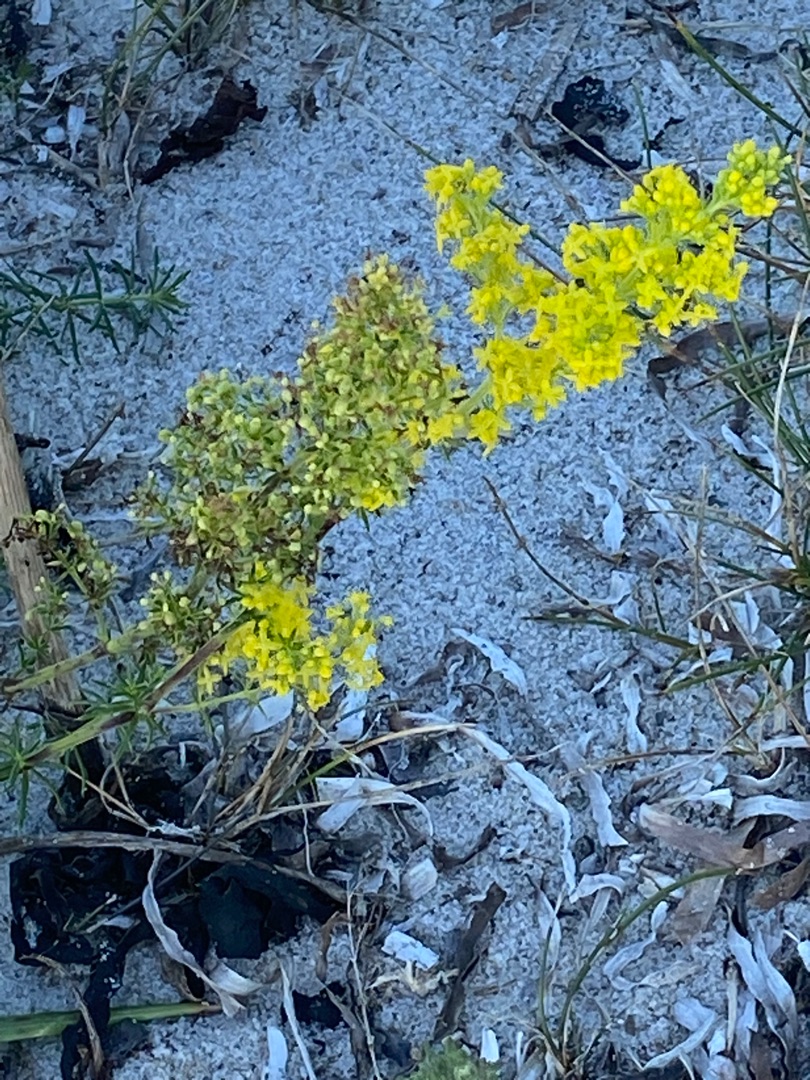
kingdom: Plantae
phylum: Tracheophyta
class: Magnoliopsida
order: Gentianales
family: Rubiaceae
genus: Galium
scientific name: Galium verum
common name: Gul snerre
